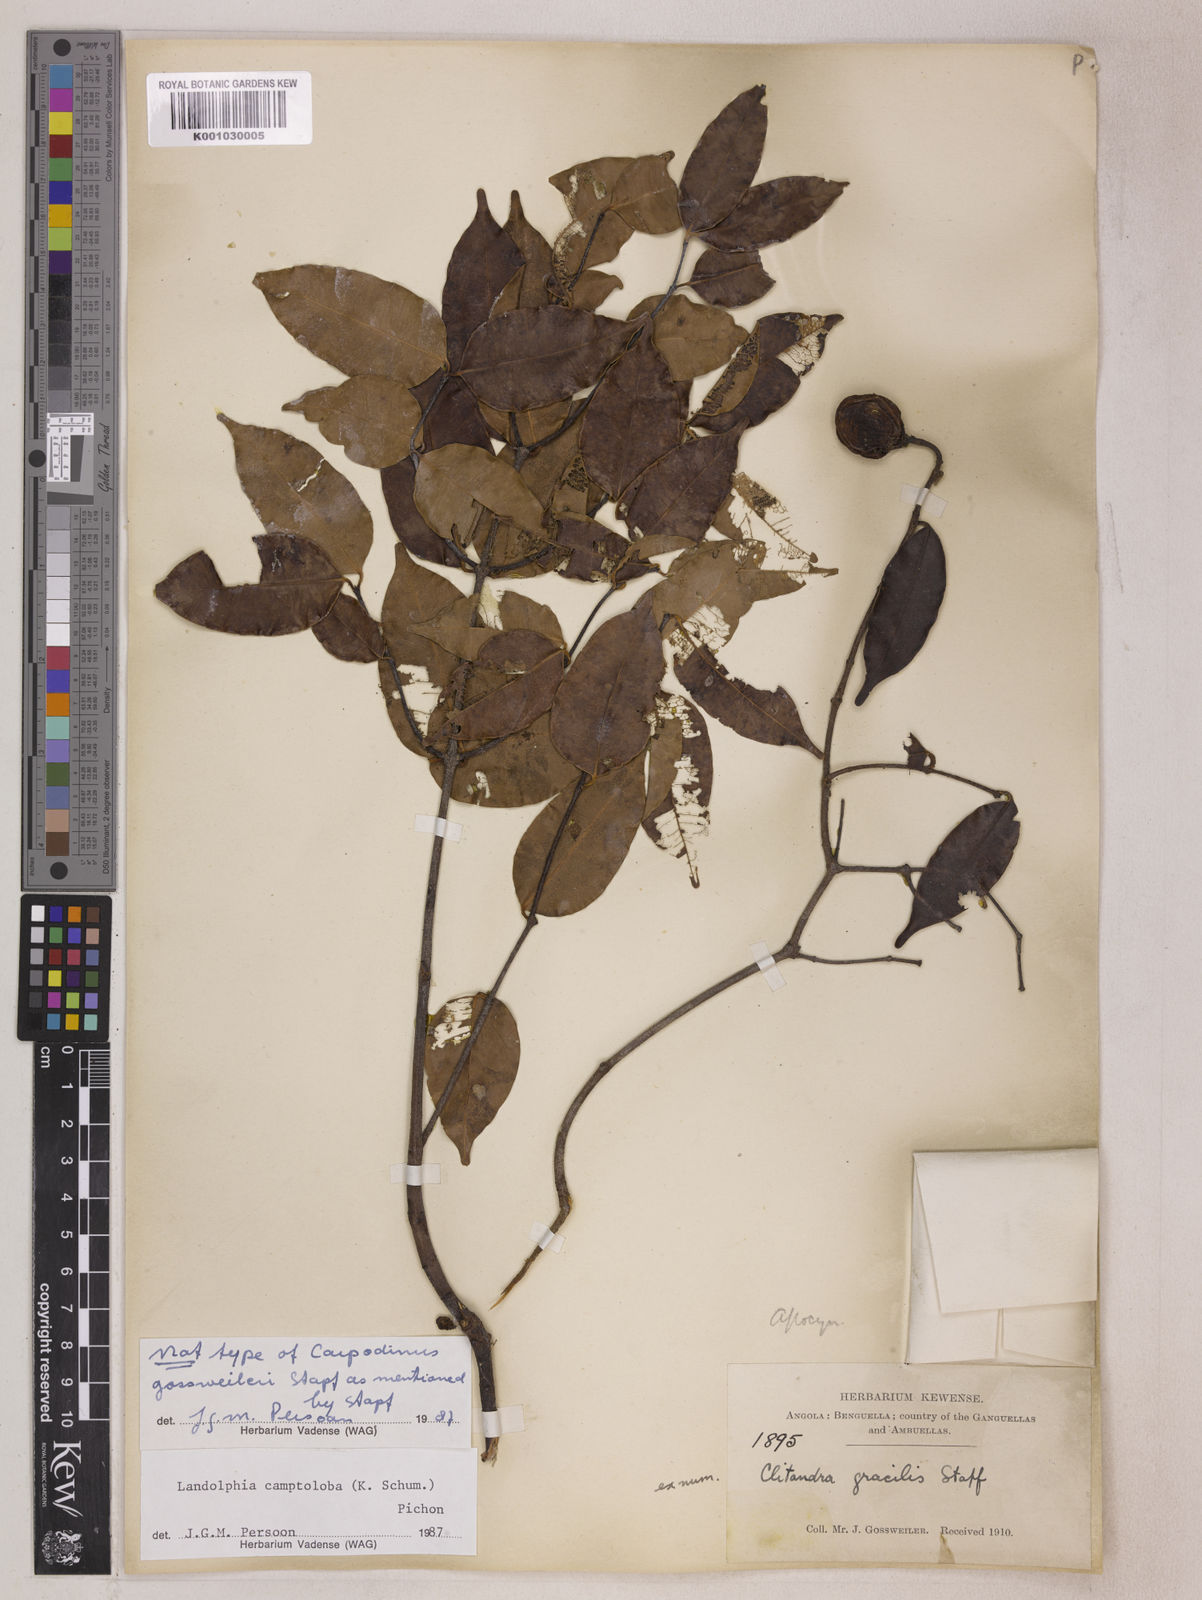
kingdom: Plantae
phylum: Tracheophyta
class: Magnoliopsida
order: Gentianales
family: Apocynaceae
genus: Landolphia
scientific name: Landolphia camptoloba
